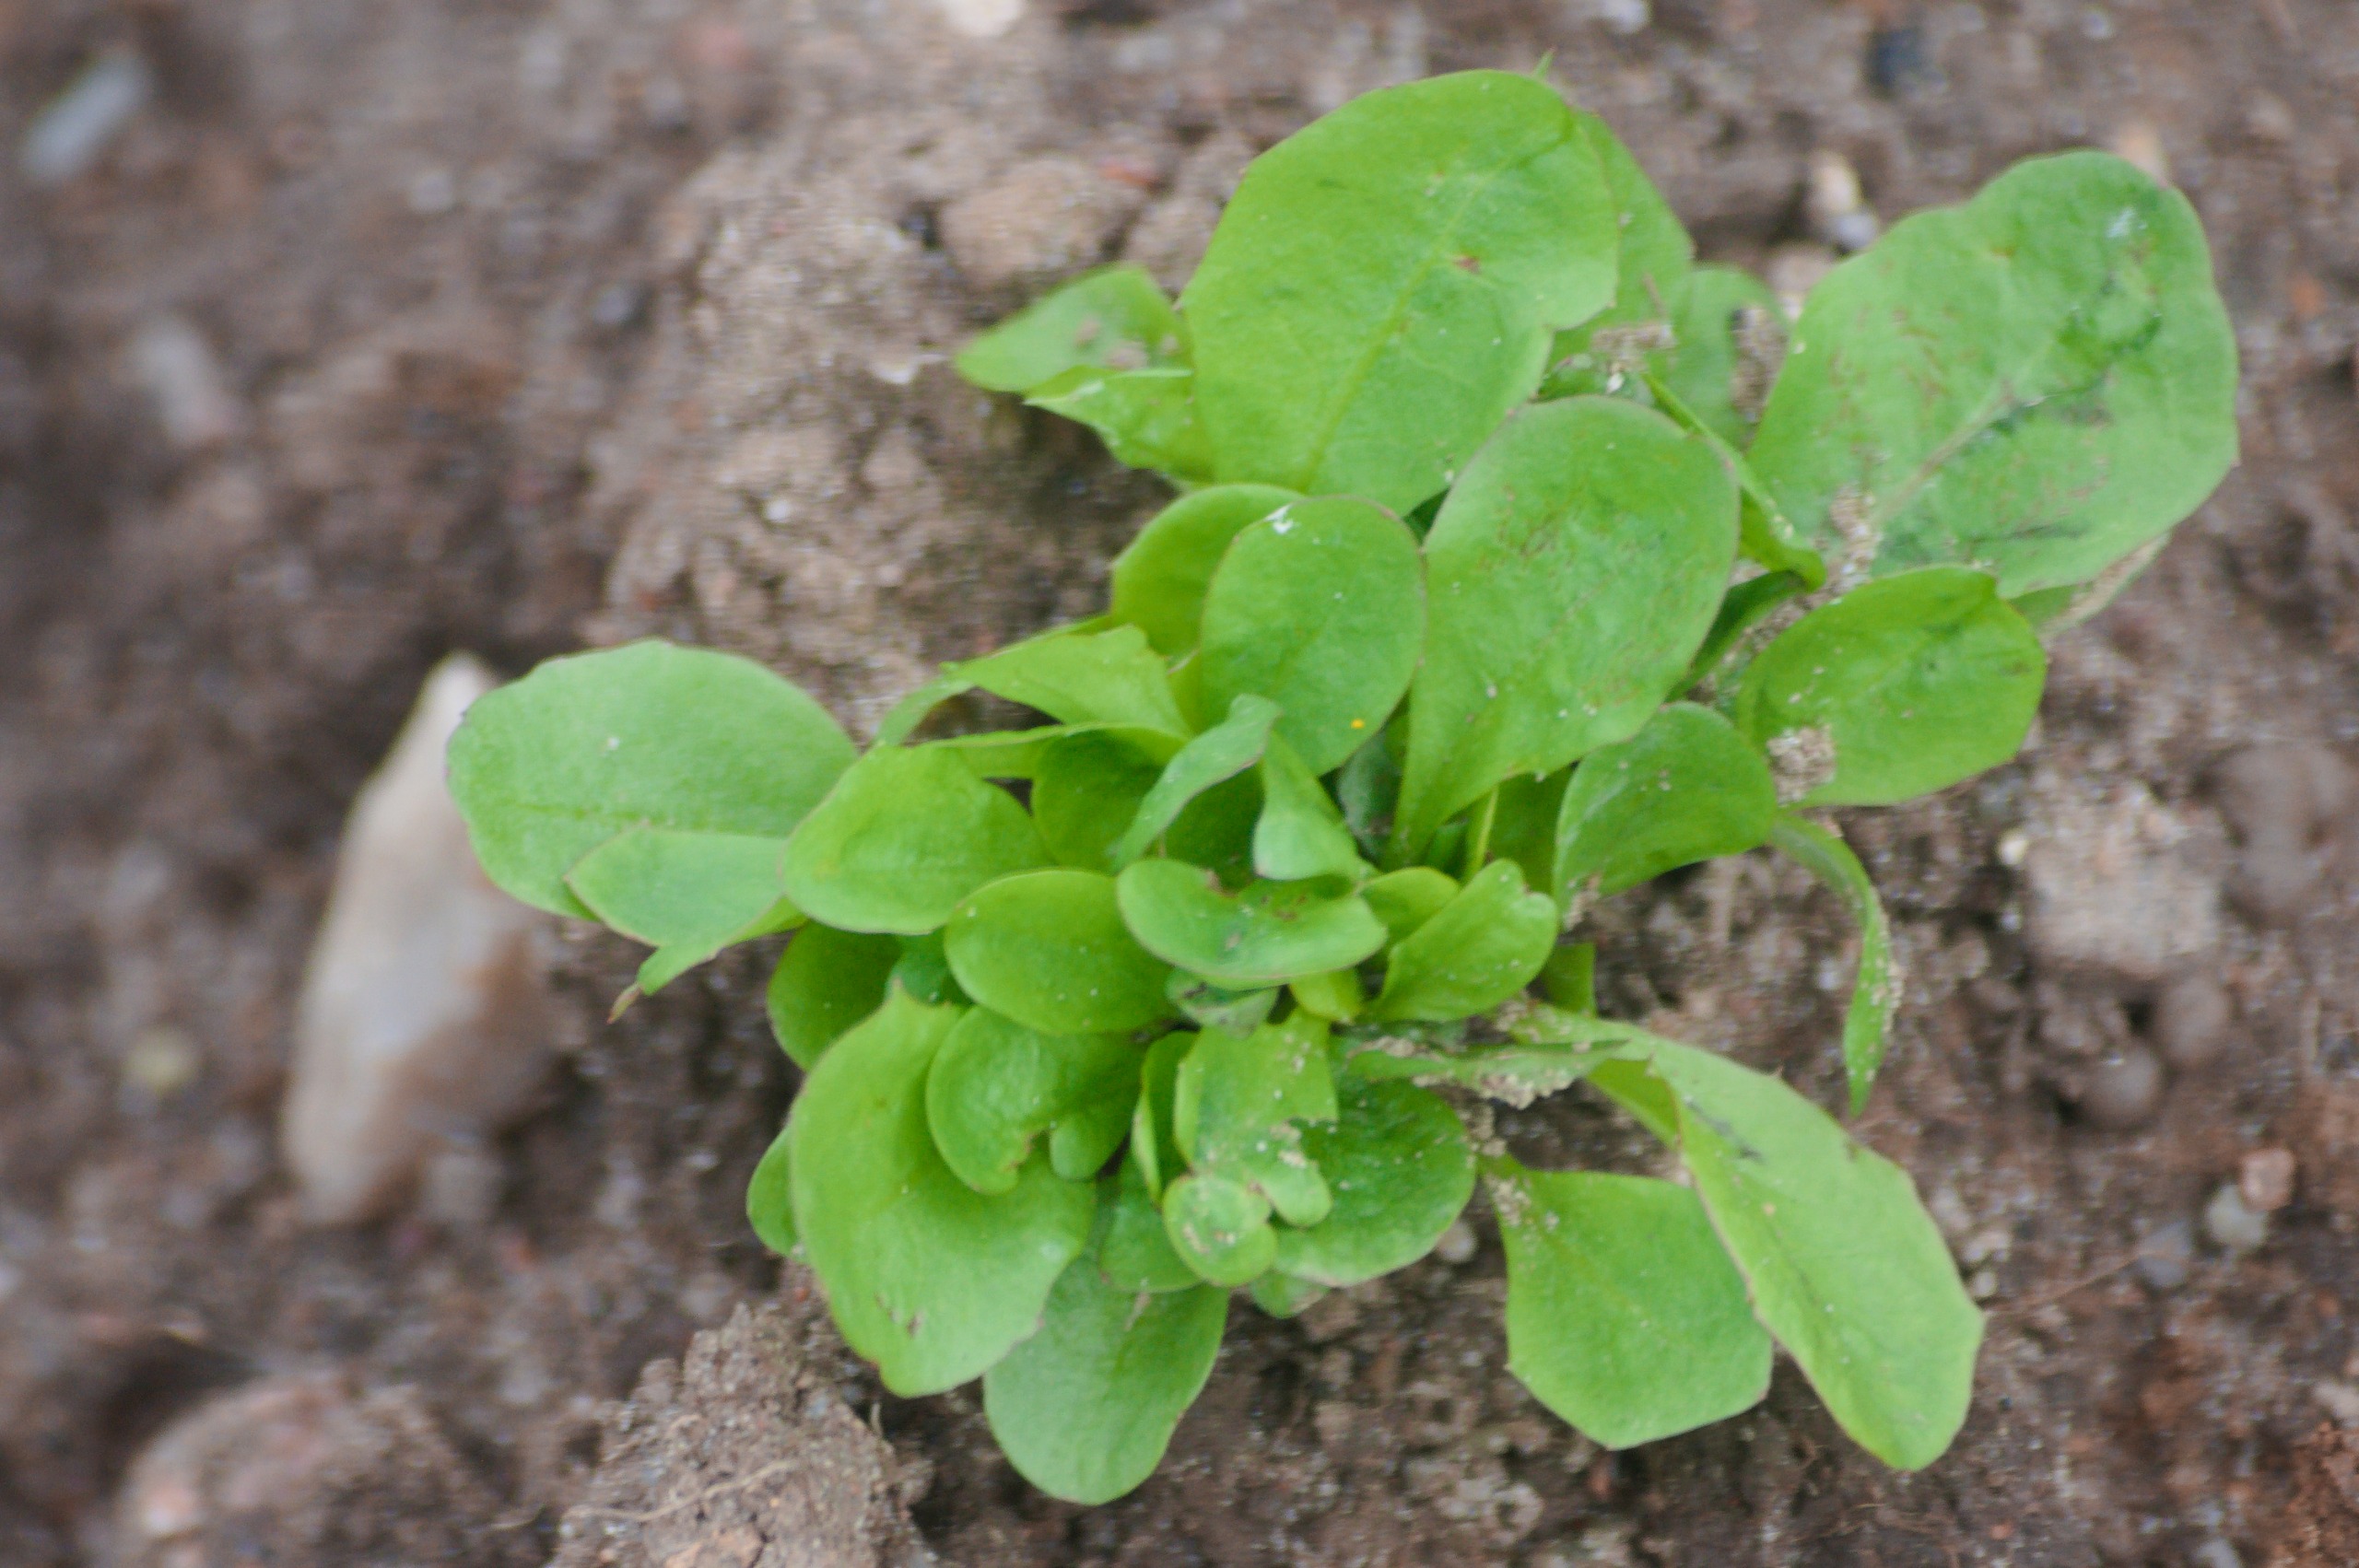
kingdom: Plantae
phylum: Tracheophyta
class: Magnoliopsida
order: Asterales
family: Asteraceae
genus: Taraxacum
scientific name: Taraxacum
